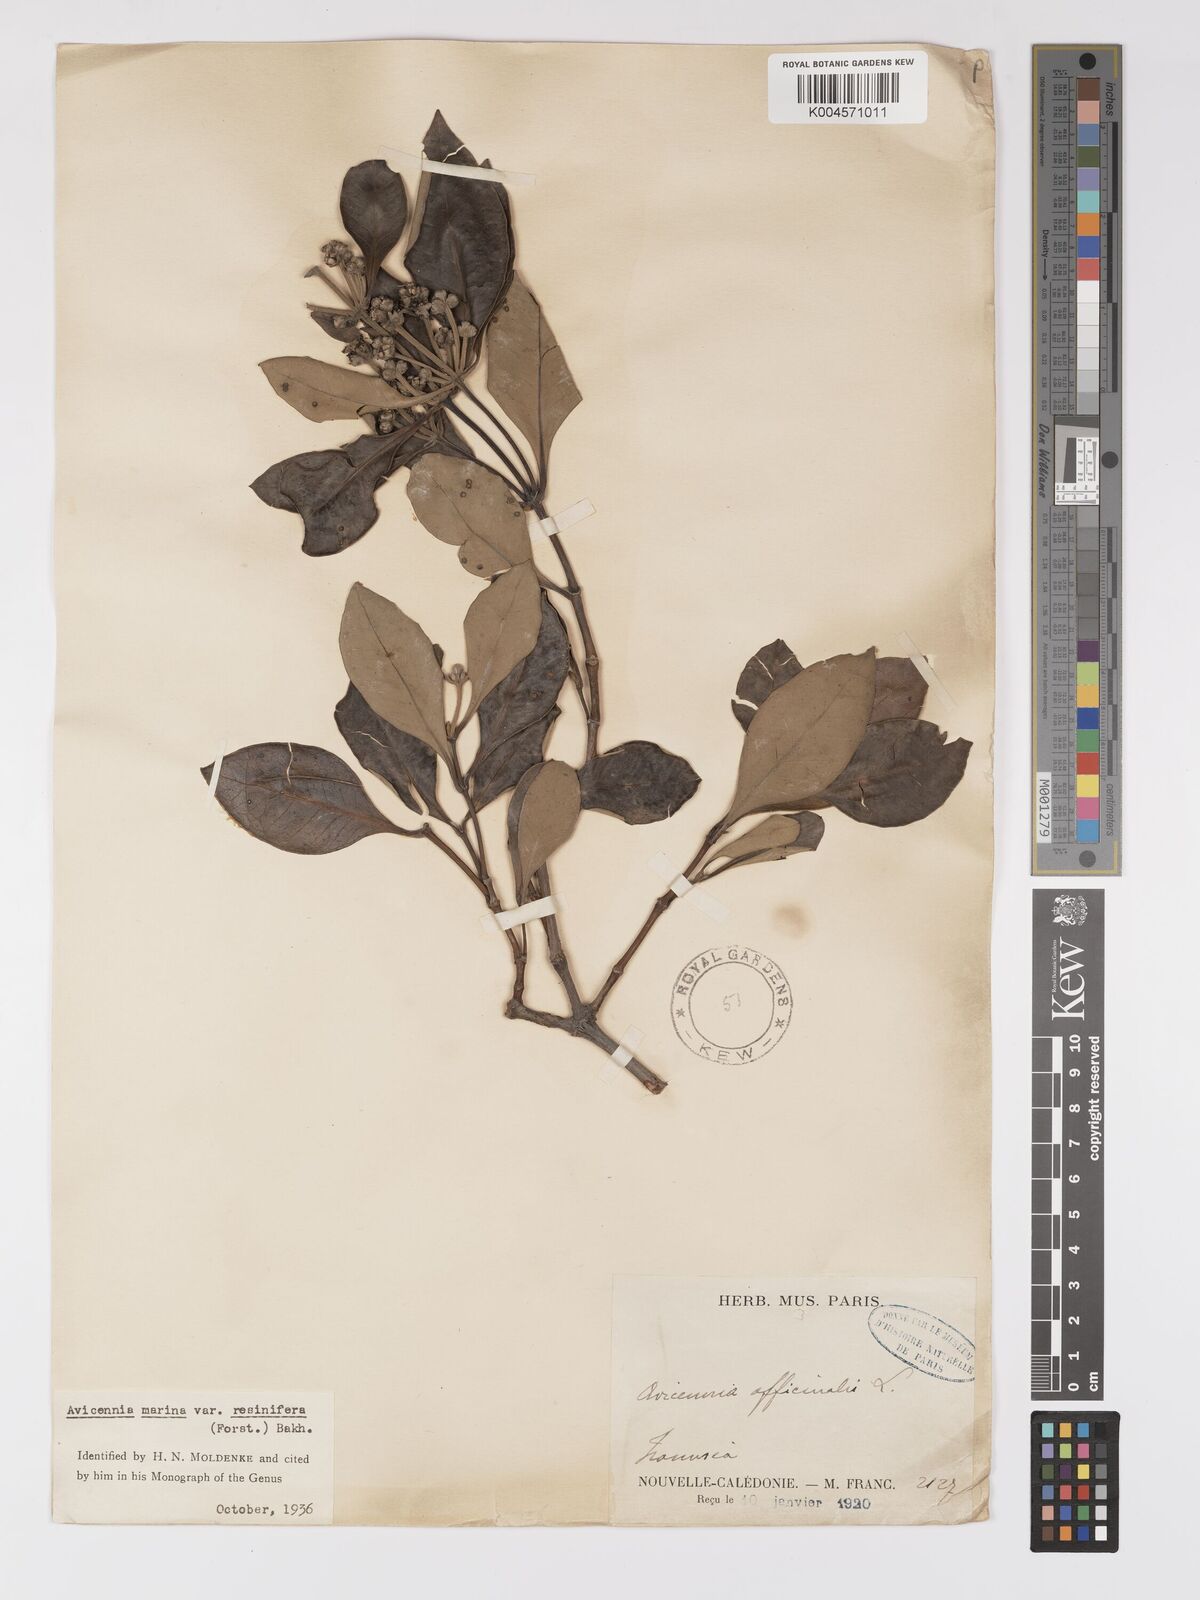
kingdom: Plantae
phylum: Tracheophyta
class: Magnoliopsida
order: Lamiales
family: Acanthaceae
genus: Avicennia
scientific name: Avicennia marina
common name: Gray mangrove
